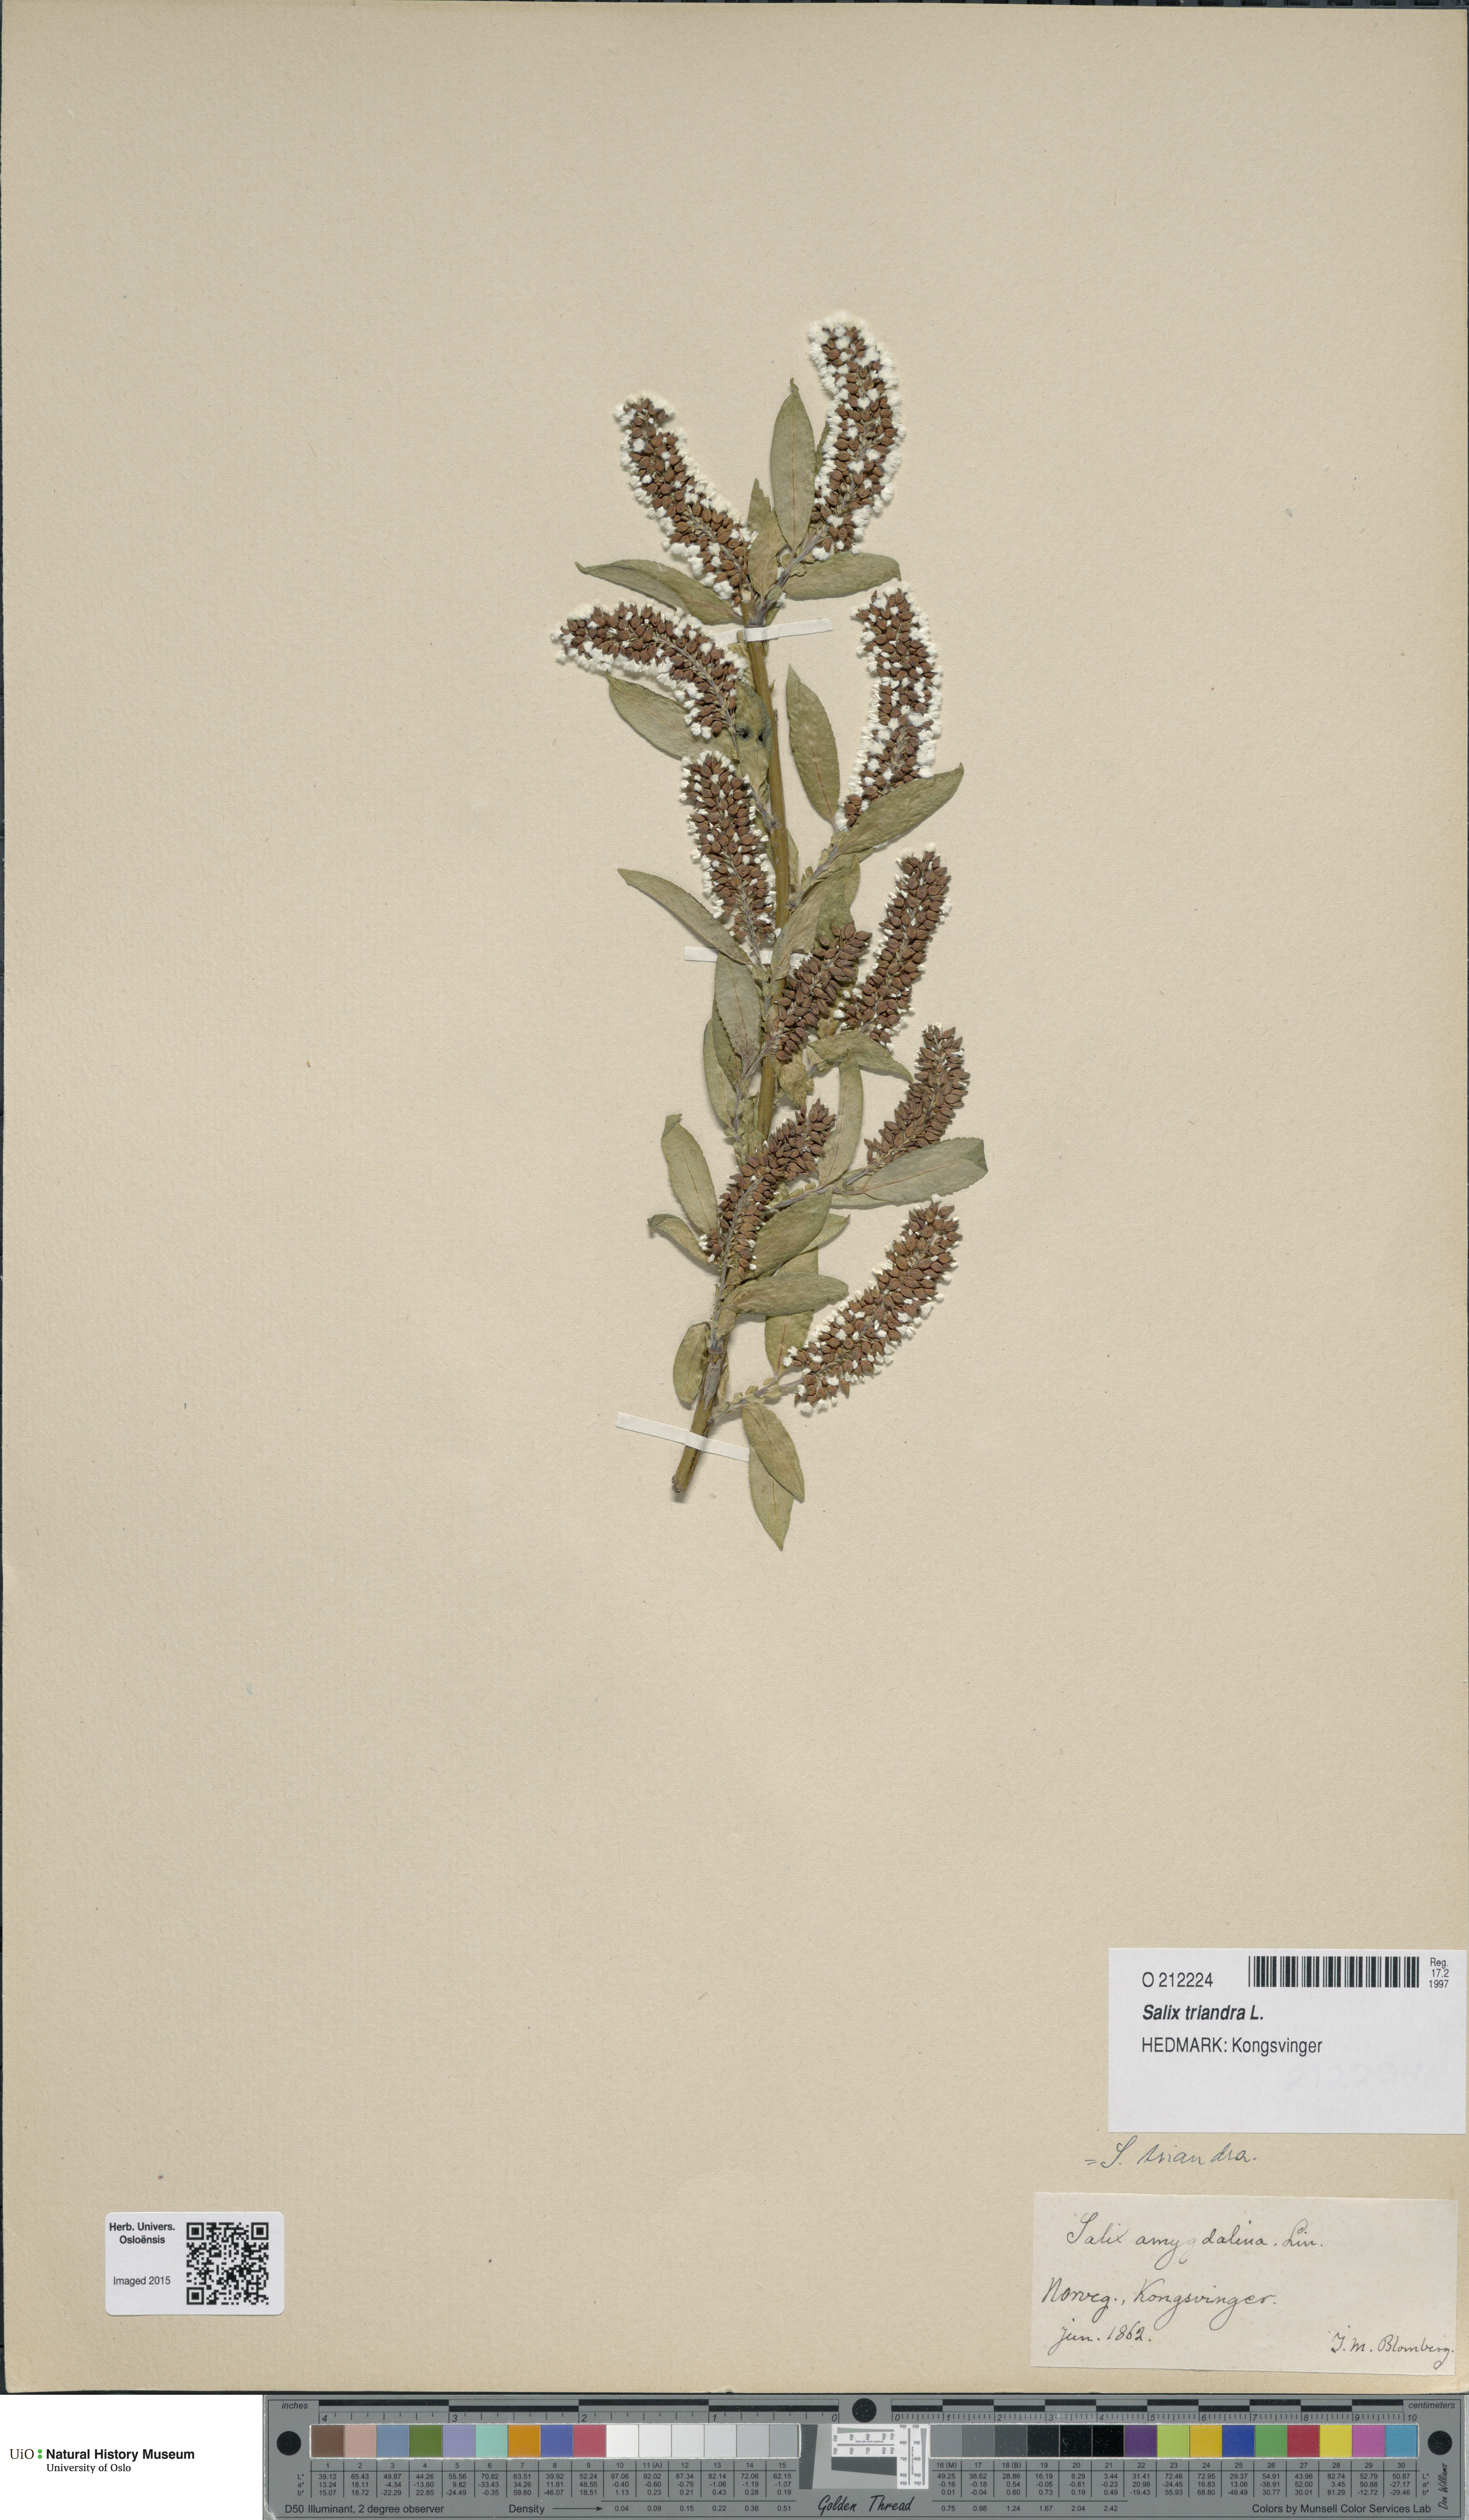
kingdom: Plantae
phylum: Tracheophyta
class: Magnoliopsida
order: Malpighiales
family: Salicaceae
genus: Salix
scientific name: Salix triandra
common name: Almond willow
